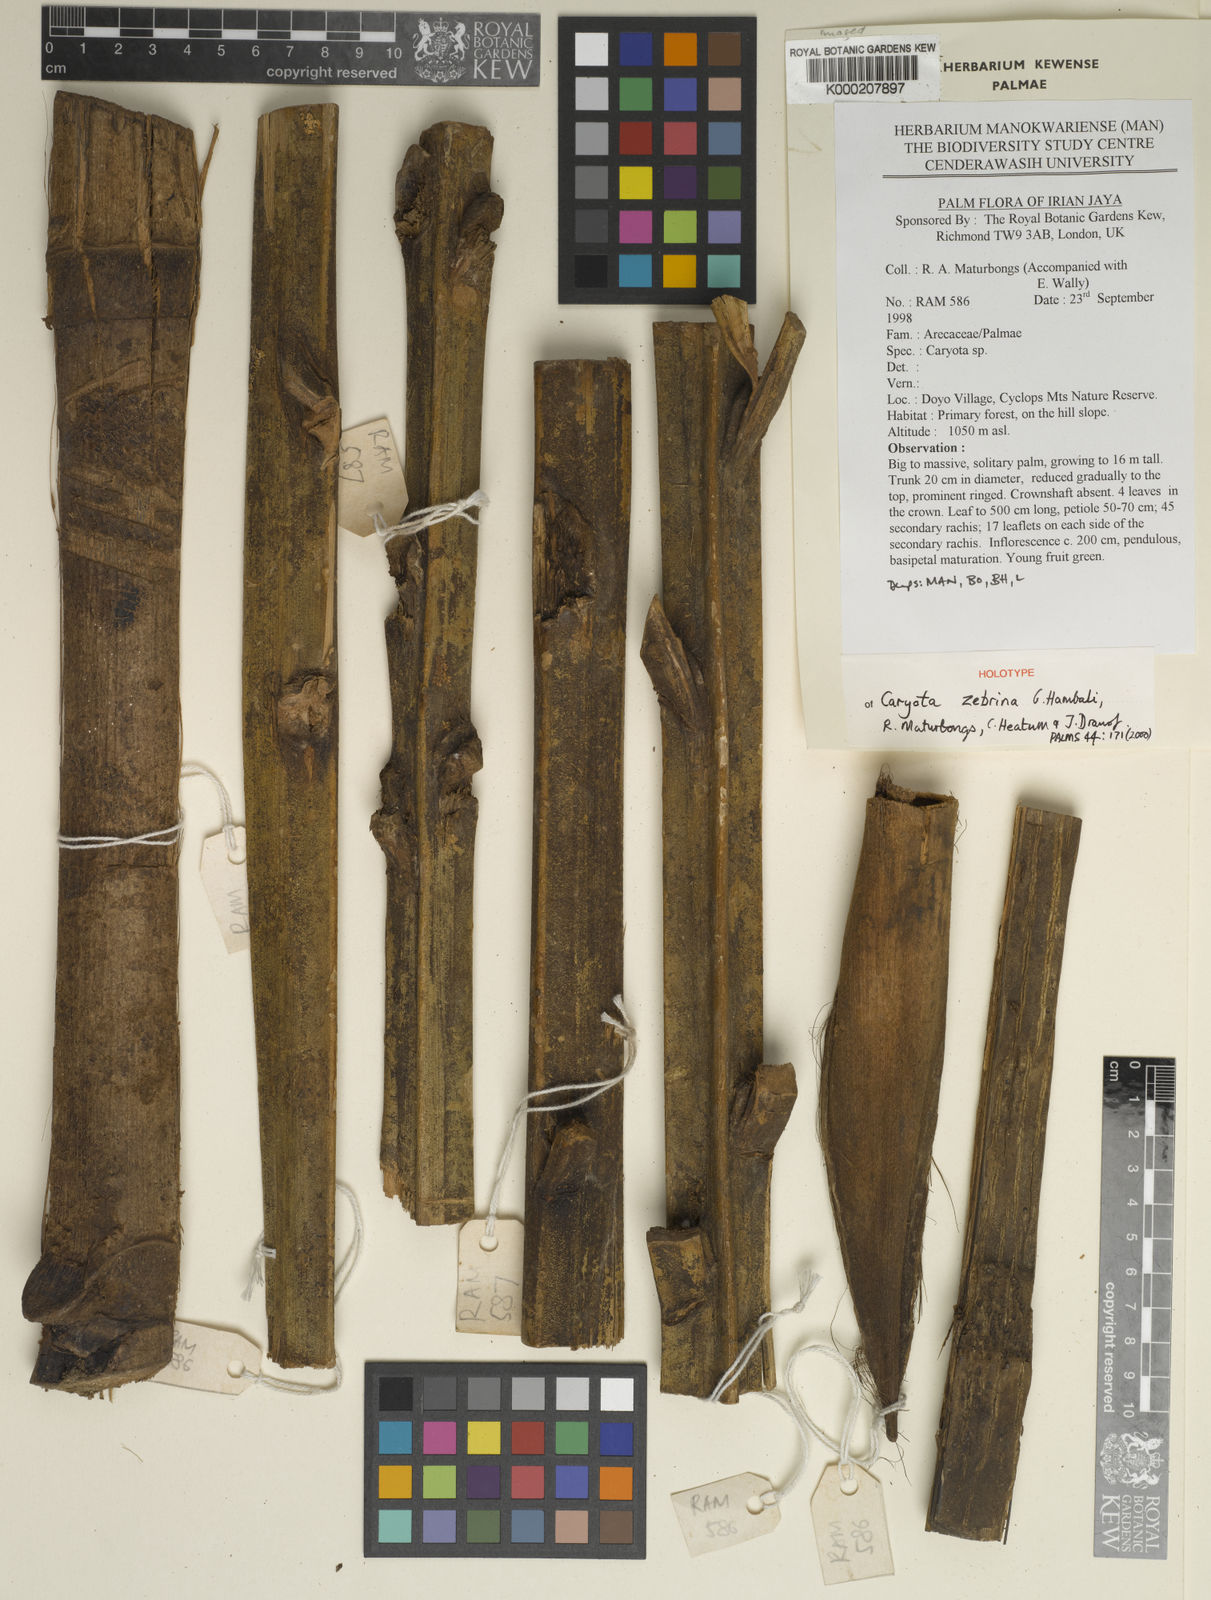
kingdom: Plantae
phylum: Tracheophyta
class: Liliopsida
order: Arecales
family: Arecaceae
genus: Caryota
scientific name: Caryota
